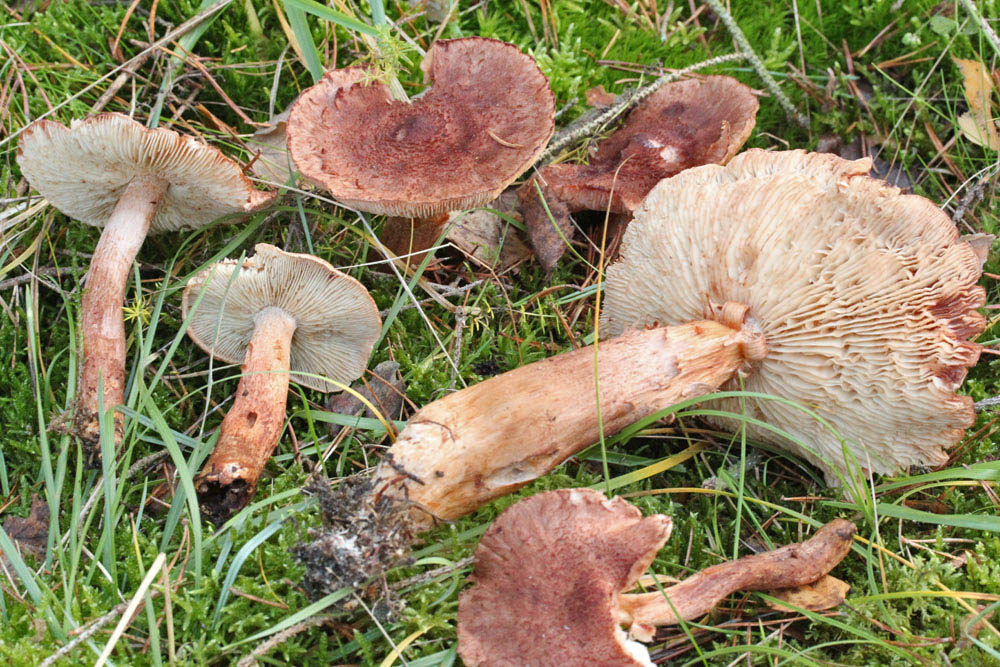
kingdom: Fungi
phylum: Basidiomycota
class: Agaricomycetes
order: Agaricales
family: Tricholomataceae
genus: Tricholoma
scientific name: Tricholoma vaccinum
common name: ko-ridderhat
